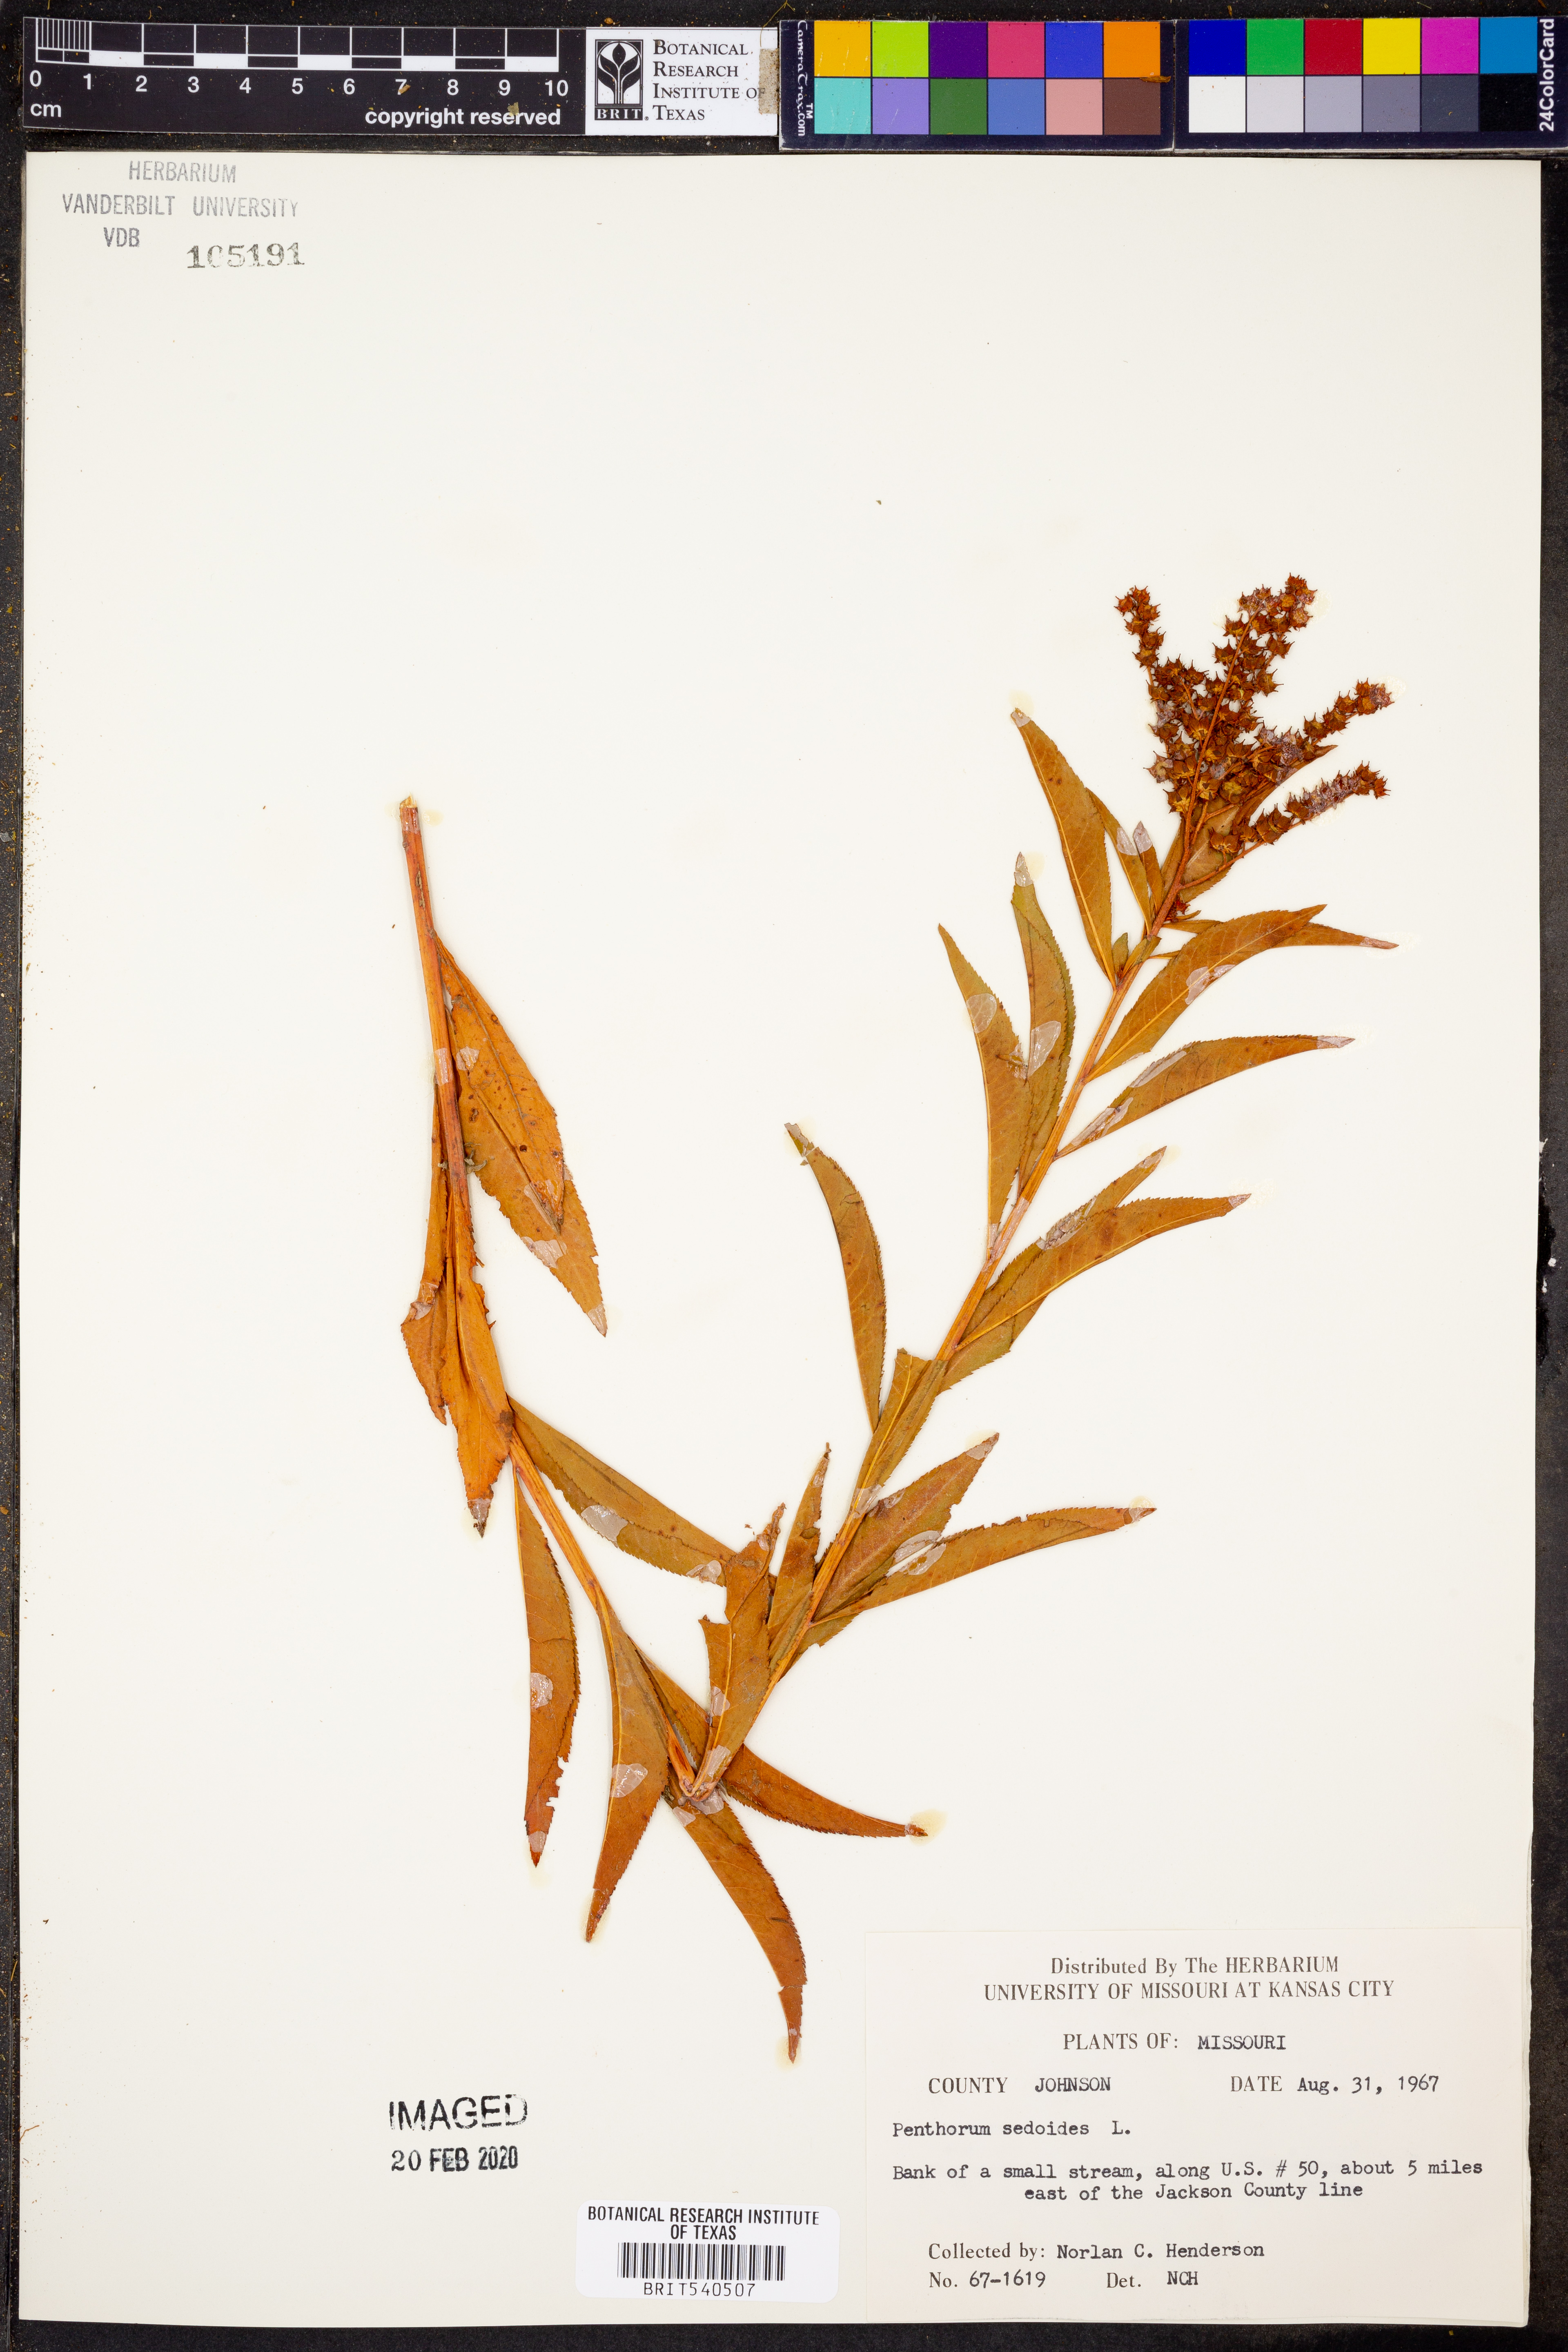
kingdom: Plantae
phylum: Tracheophyta
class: Magnoliopsida
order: Saxifragales
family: Penthoraceae
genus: Penthorum
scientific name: Penthorum sedoides
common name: Ditch stonecrop
